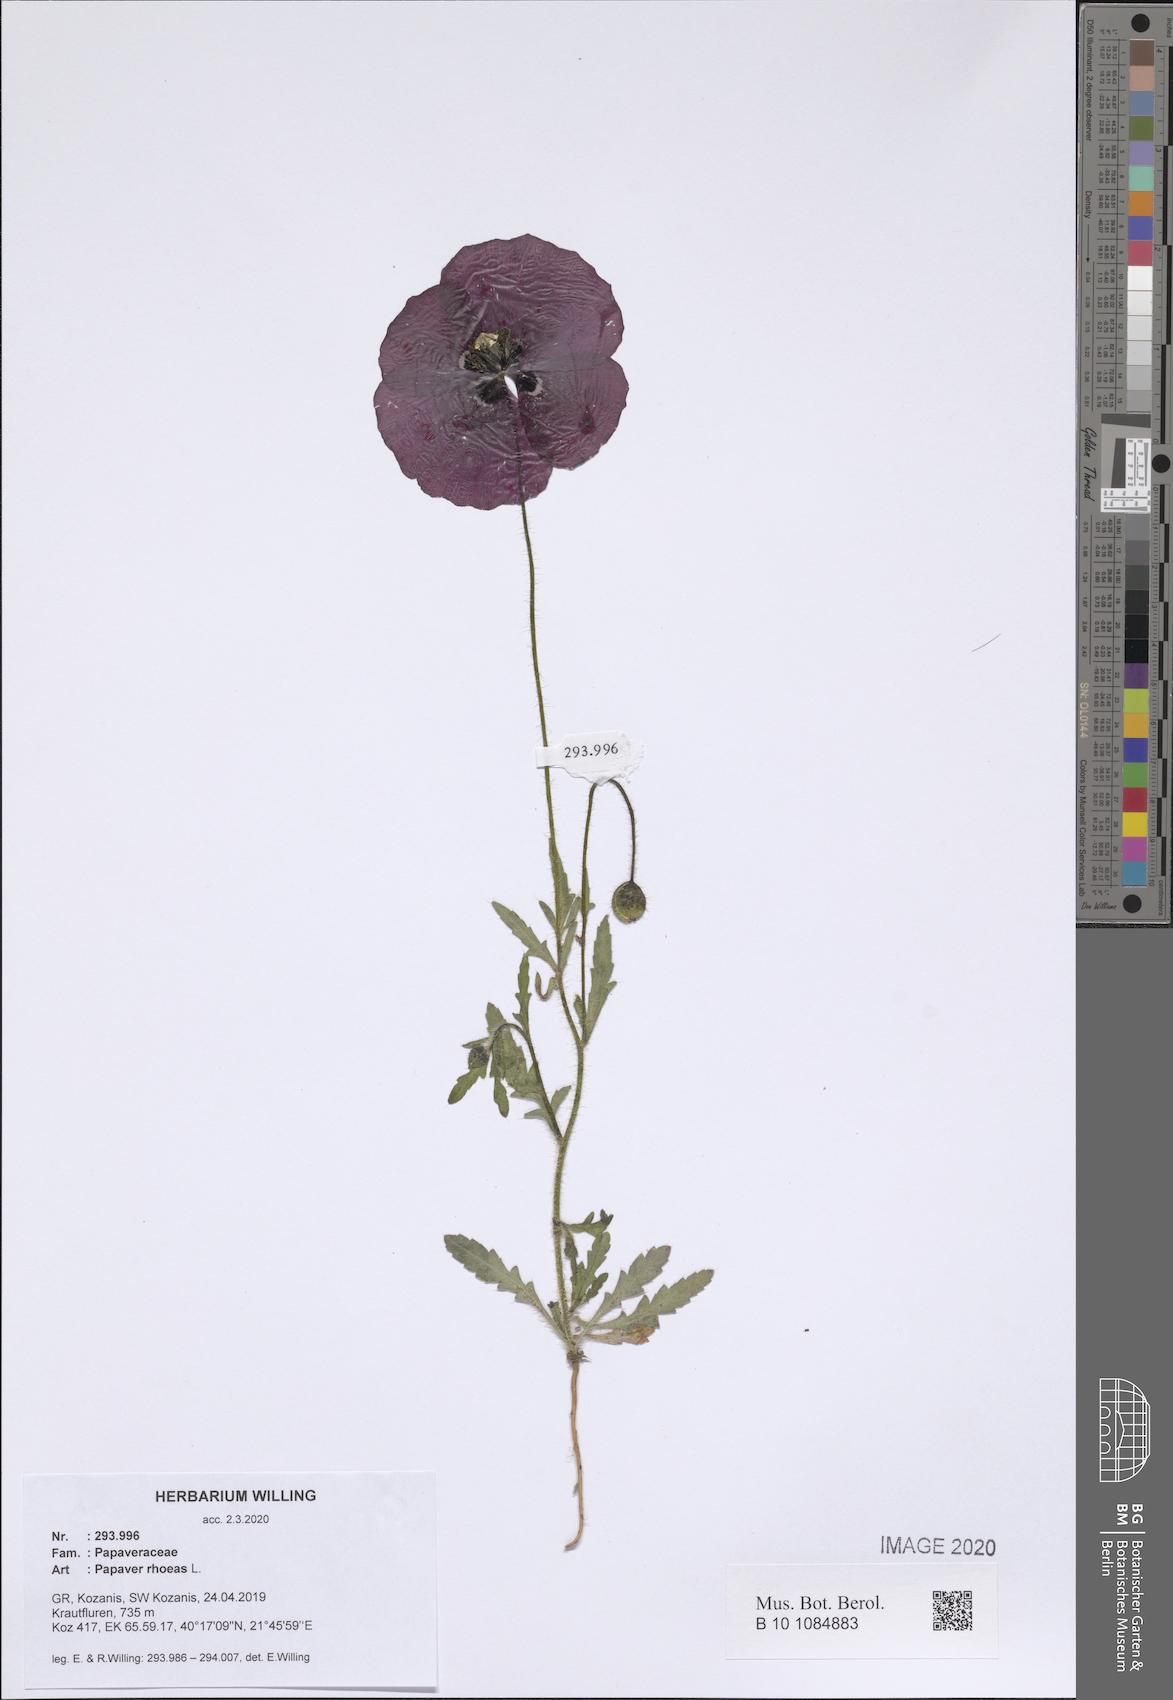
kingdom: Plantae
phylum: Tracheophyta
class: Magnoliopsida
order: Ranunculales
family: Papaveraceae
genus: Papaver
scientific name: Papaver rhoeas
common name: Corn poppy
